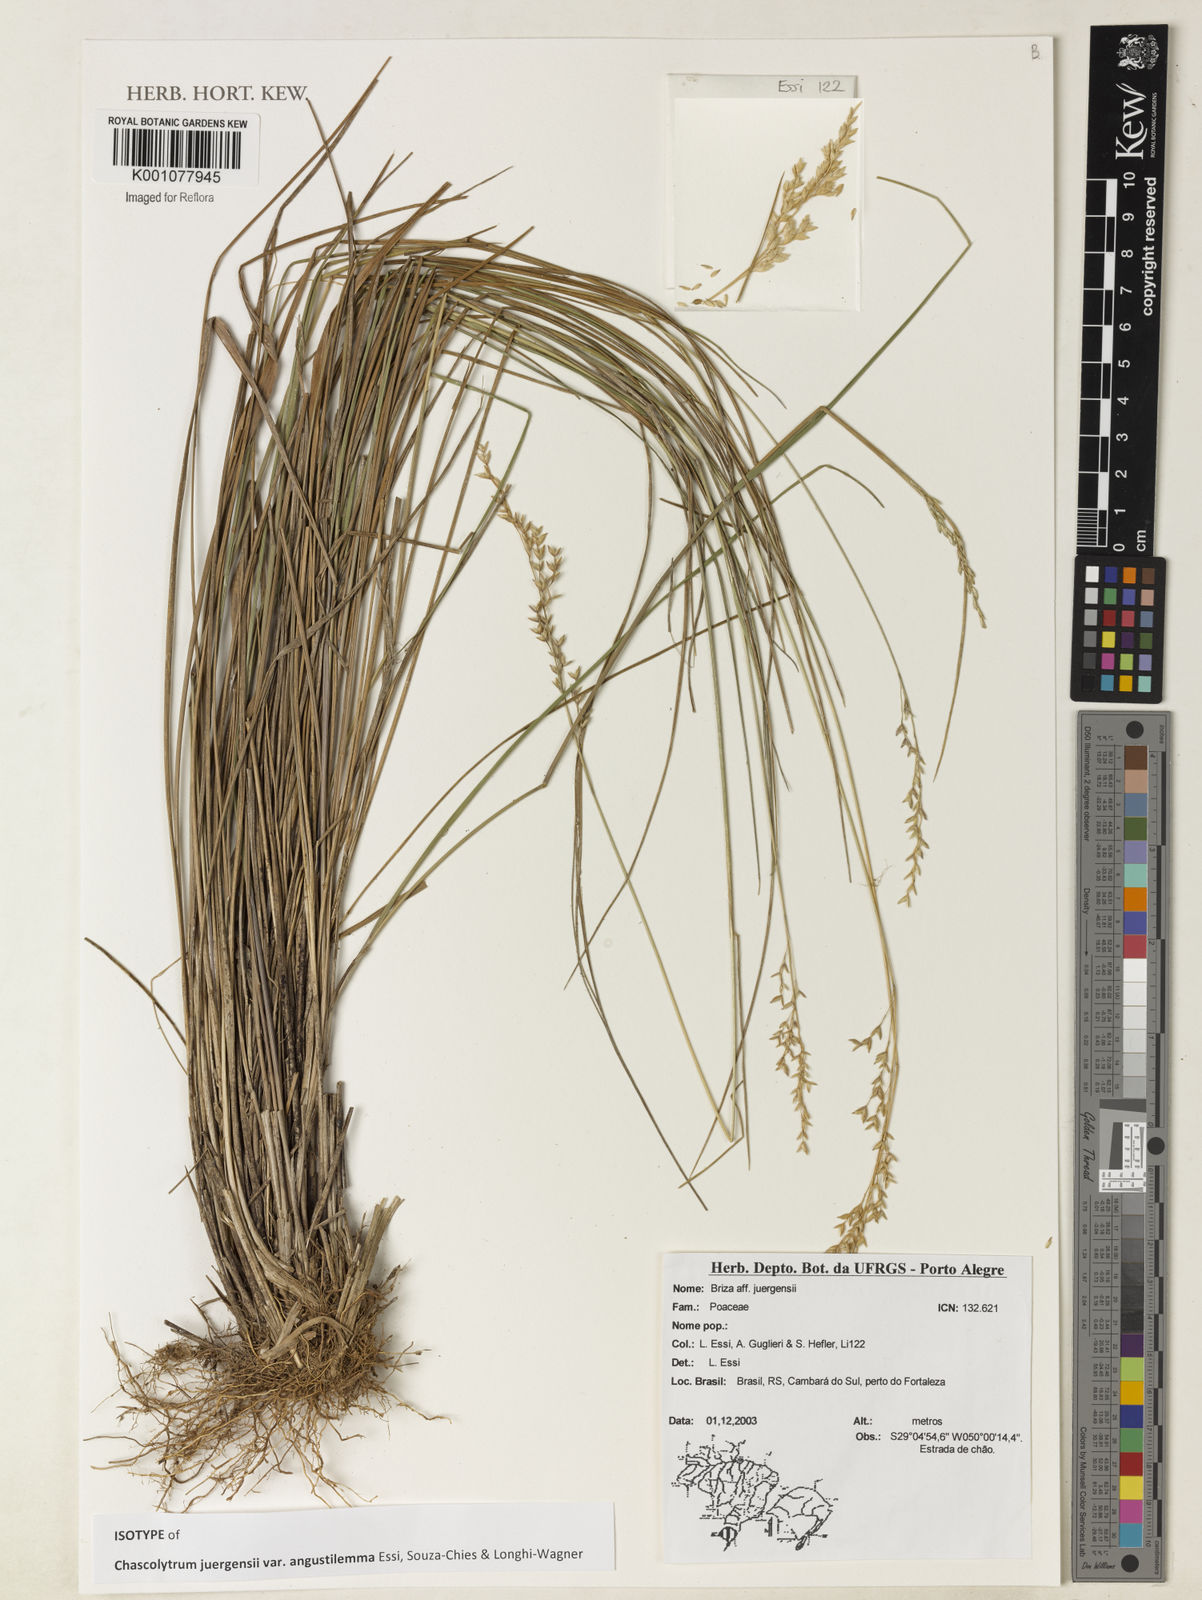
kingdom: Plantae
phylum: Tracheophyta
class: Liliopsida
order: Poales
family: Poaceae
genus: Poidium
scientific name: Poidium juergensii
